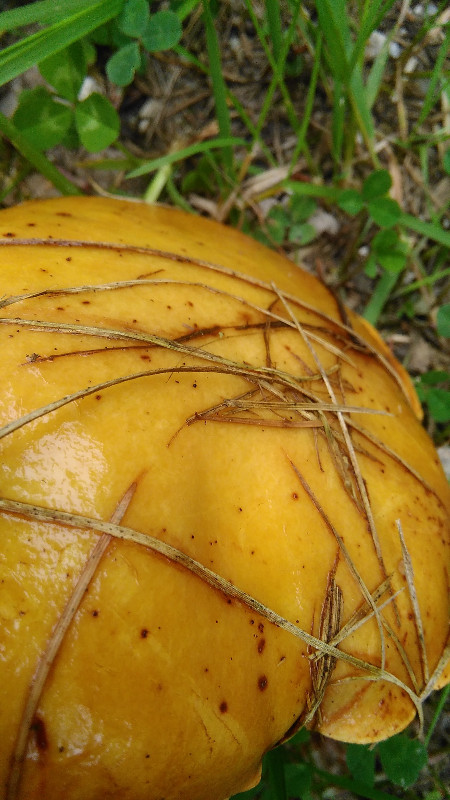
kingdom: Fungi
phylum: Basidiomycota
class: Agaricomycetes
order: Boletales
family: Suillaceae
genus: Suillus
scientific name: Suillus grevillei
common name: lærke-slimrørhat
